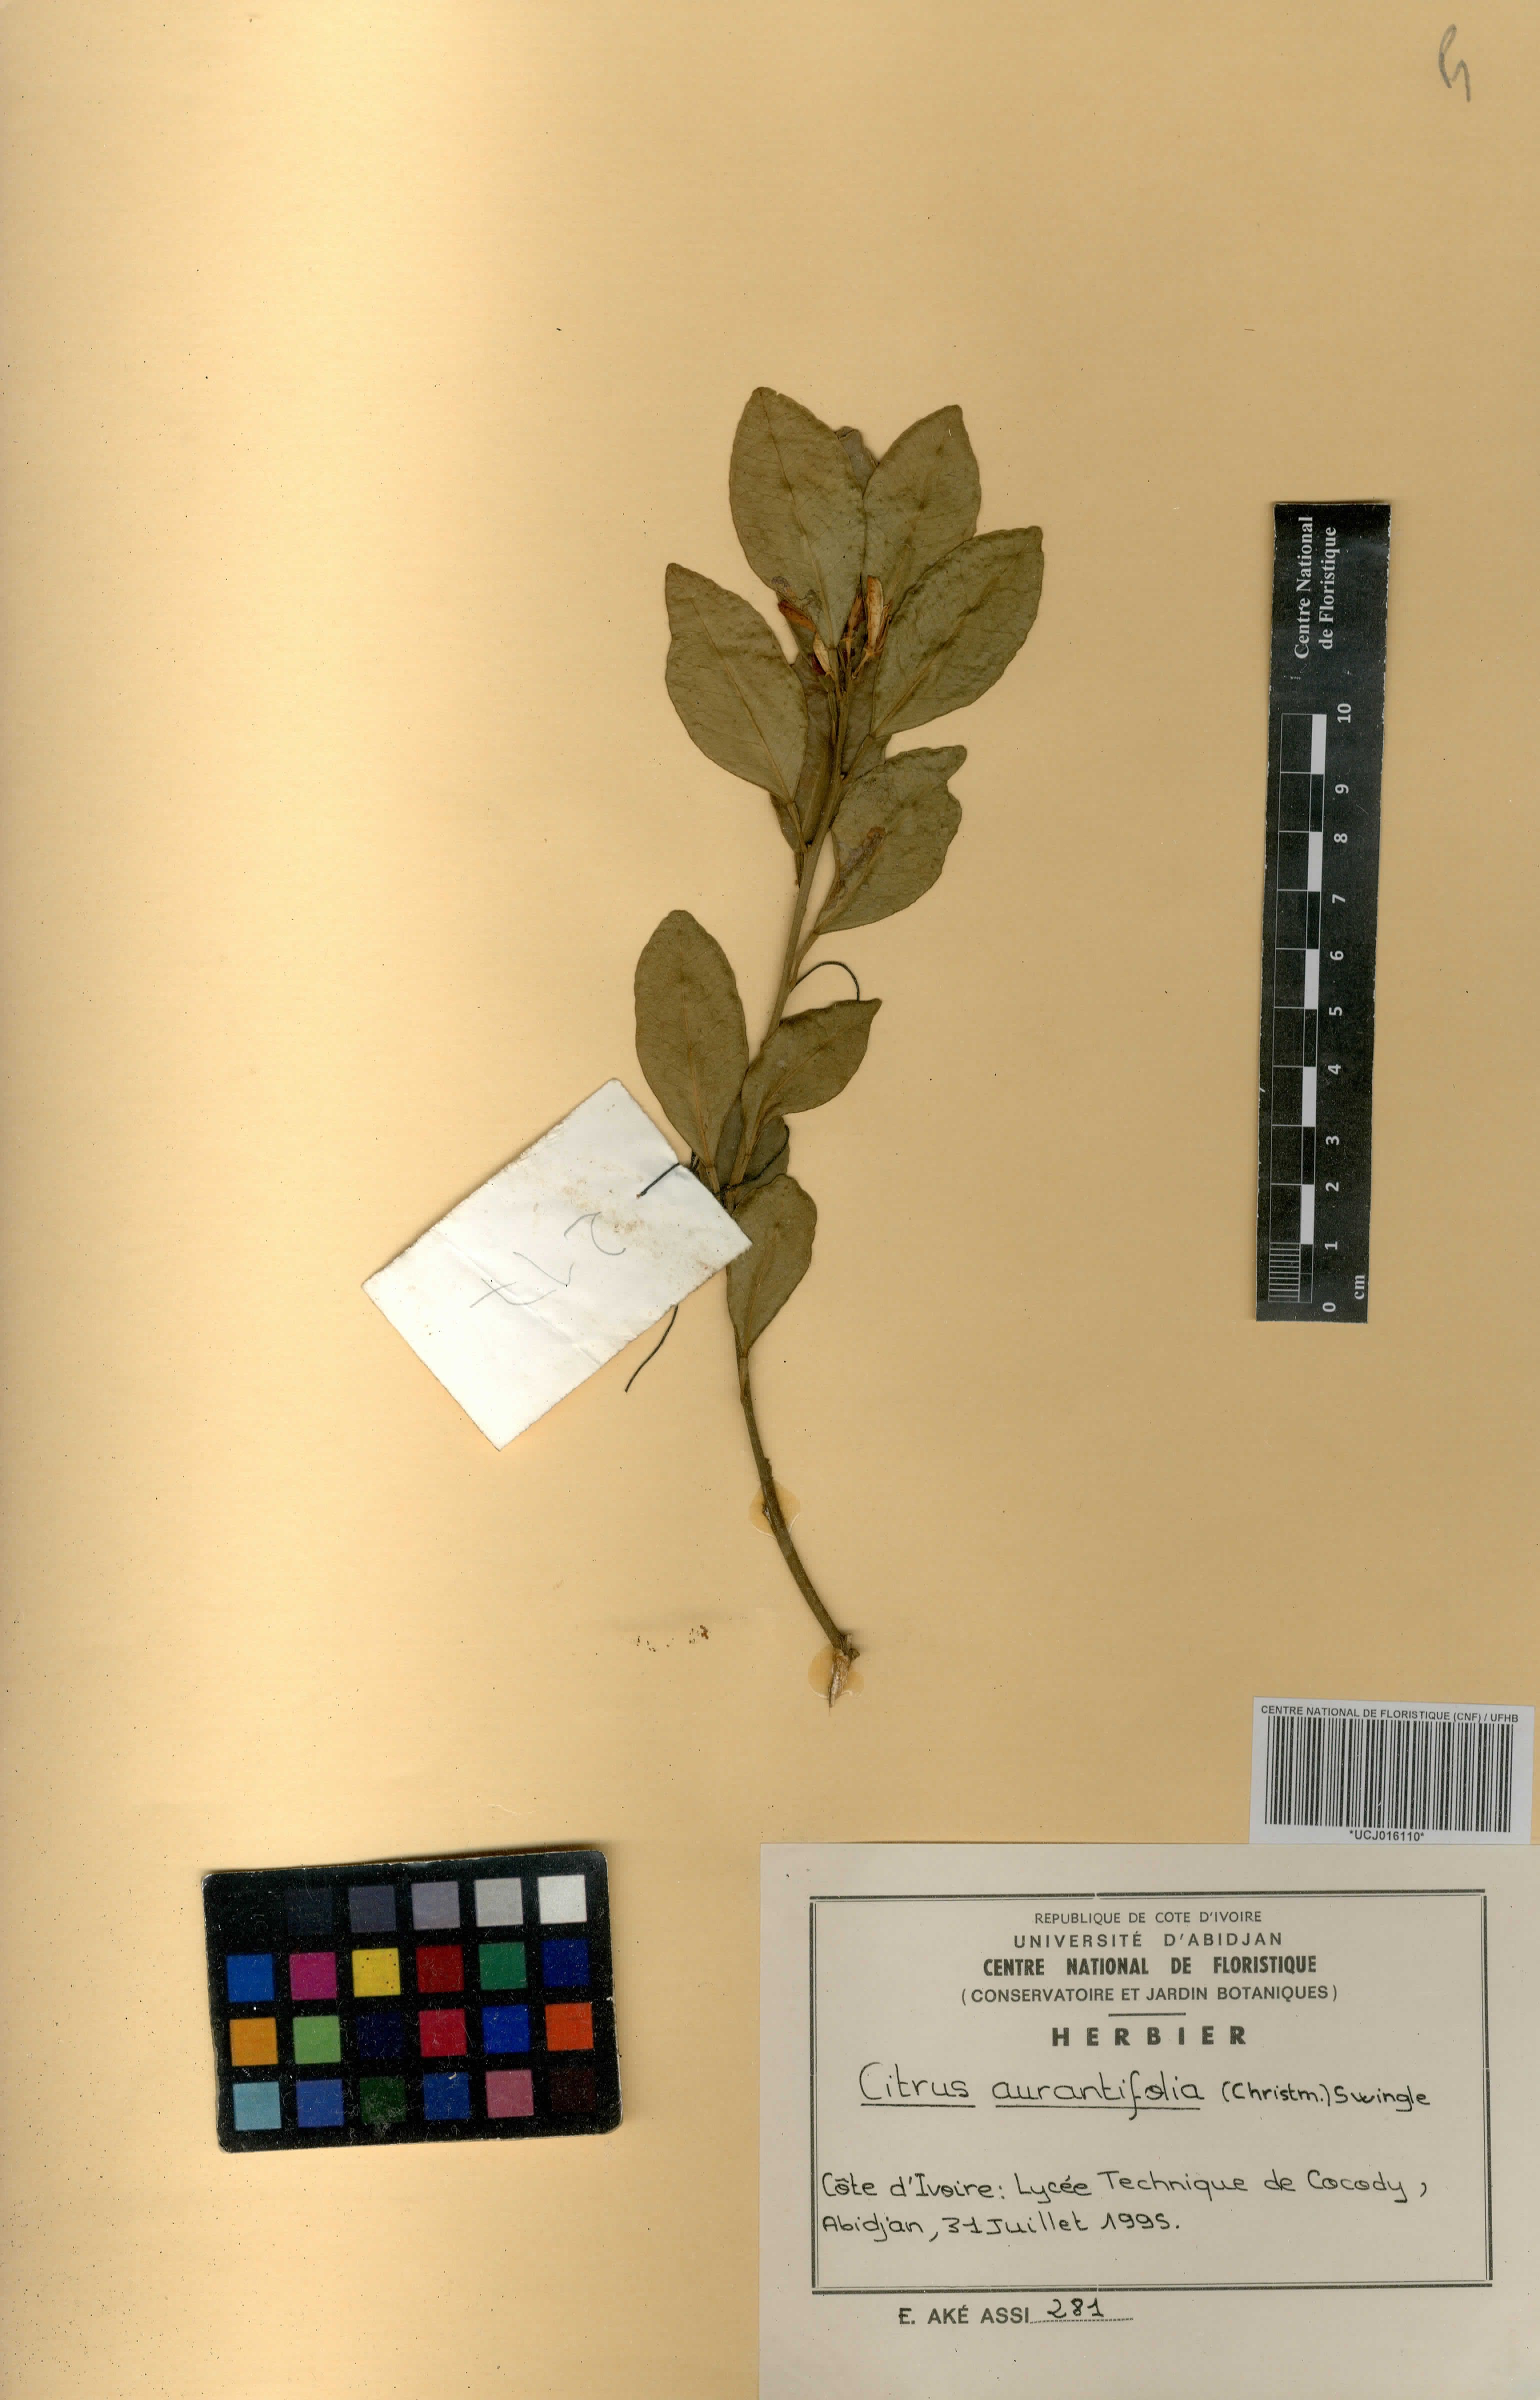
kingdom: Plantae
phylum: Tracheophyta
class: Magnoliopsida
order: Sapindales
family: Rutaceae
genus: Citrus
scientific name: Citrus aurantiifolia
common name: Key lime
